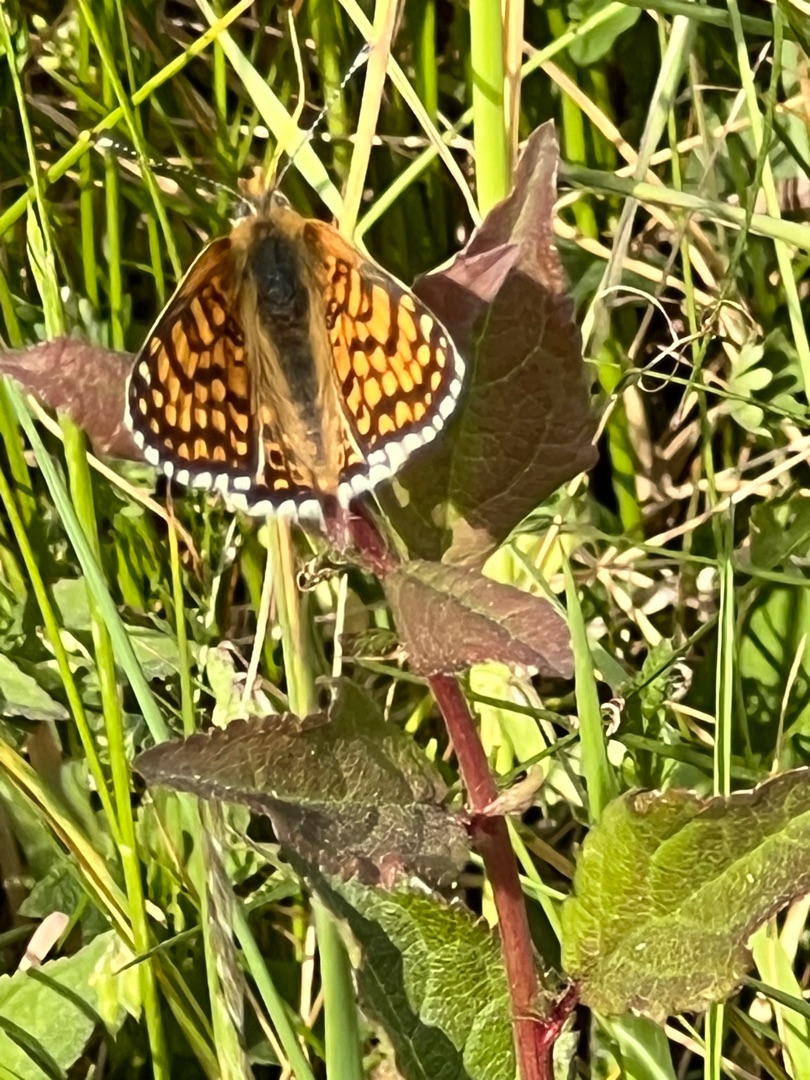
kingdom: Animalia
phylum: Arthropoda
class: Insecta
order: Lepidoptera
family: Nymphalidae
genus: Melitaea
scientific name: Melitaea cinxia
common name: Okkergul pletvinge
